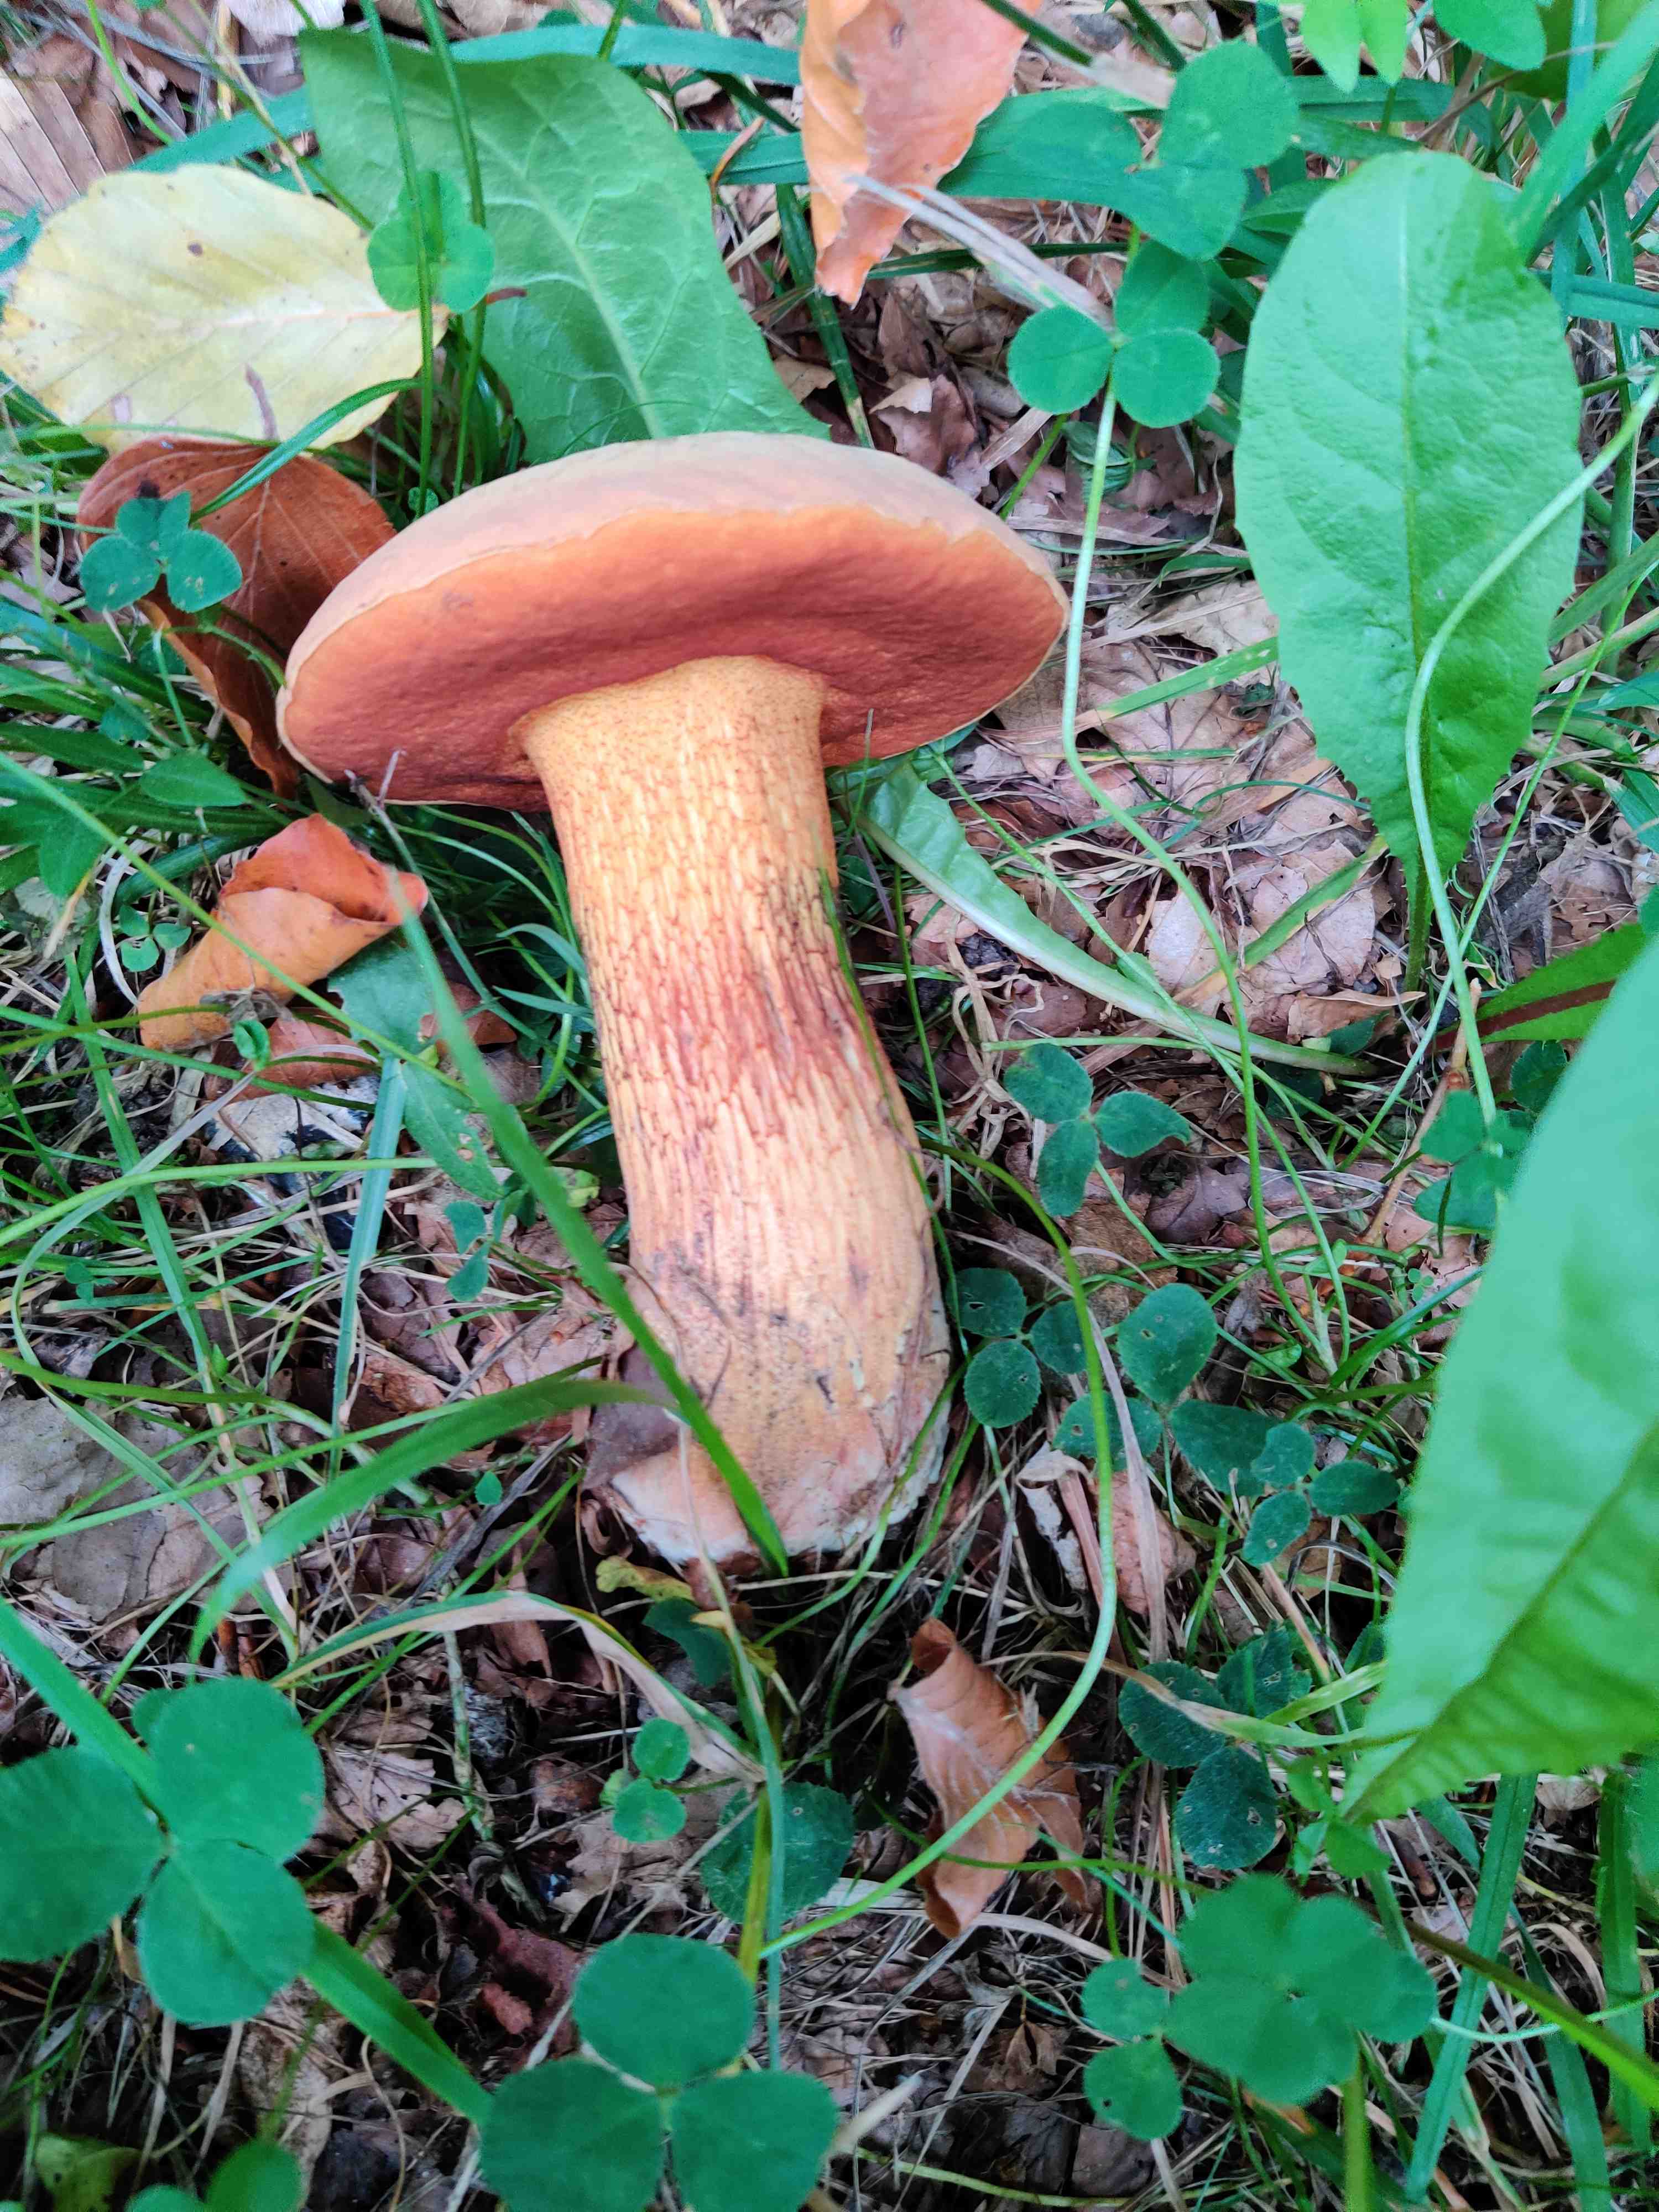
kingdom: Fungi
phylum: Basidiomycota
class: Agaricomycetes
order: Boletales
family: Boletaceae
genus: Suillellus
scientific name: Suillellus luridus
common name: netstokket indigorørhat
